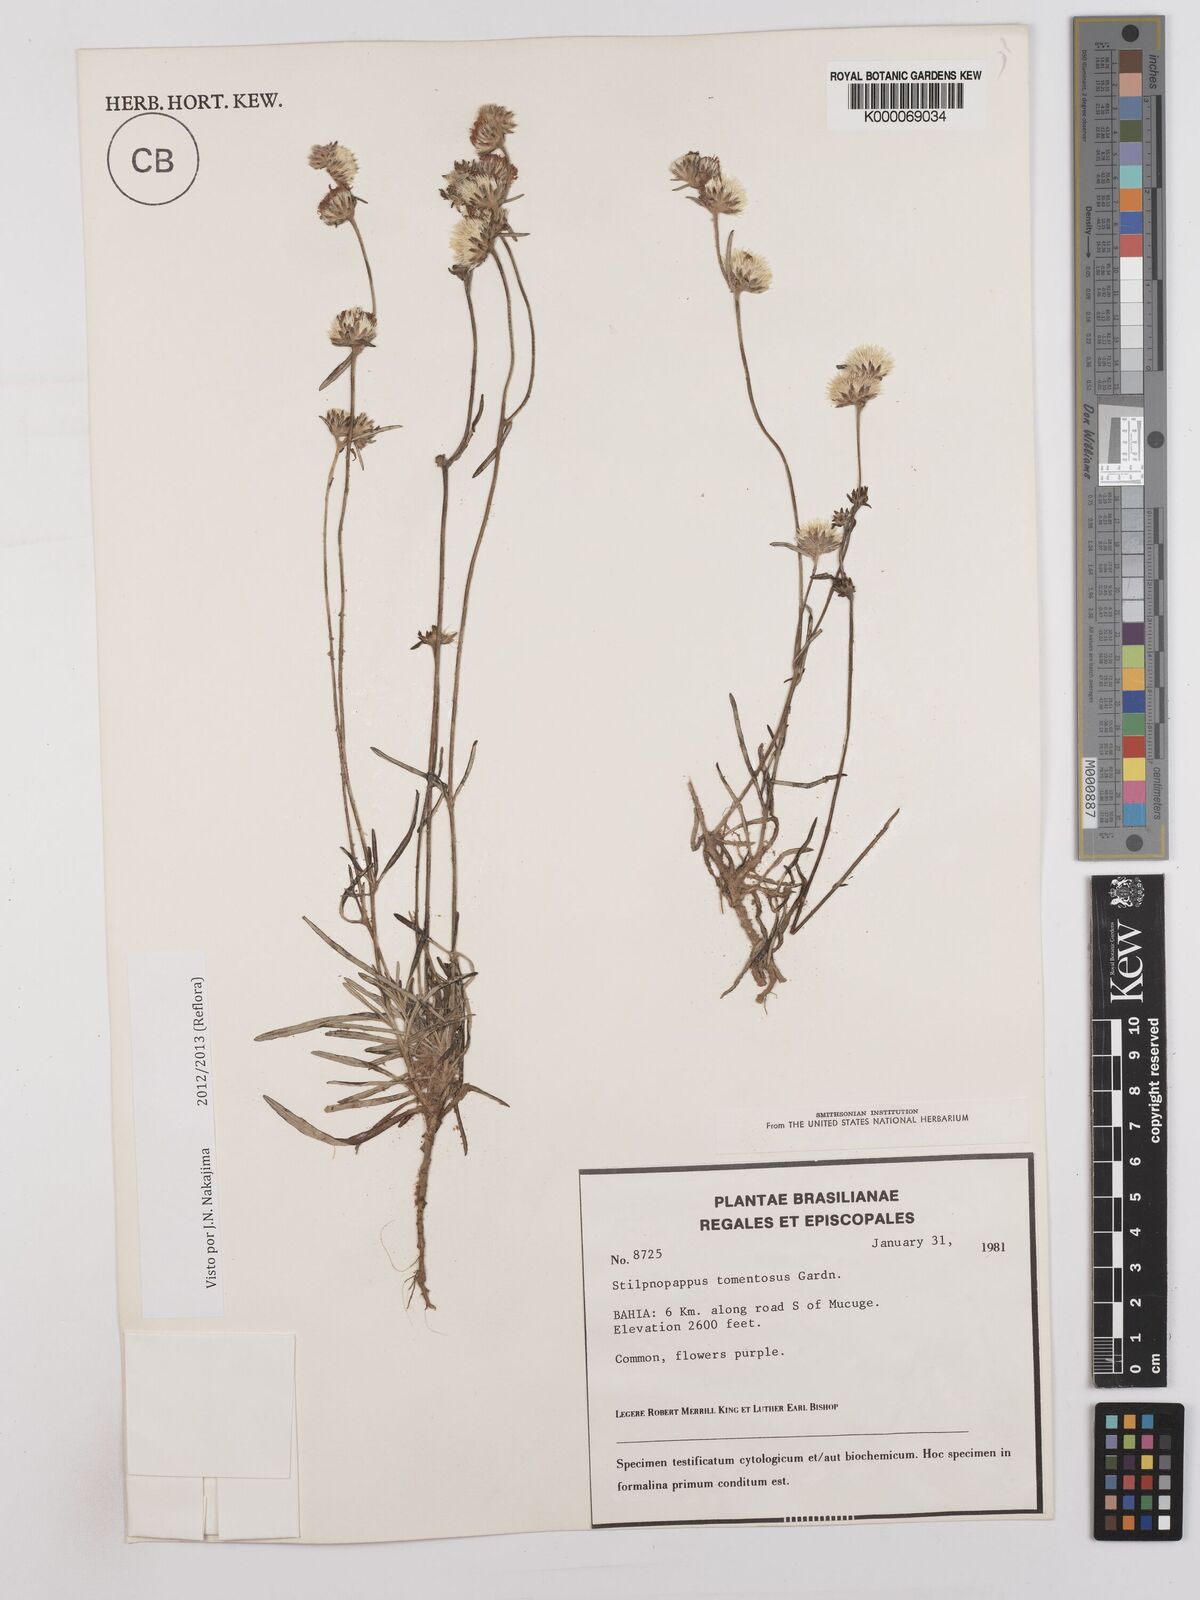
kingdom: Plantae
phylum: Tracheophyta
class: Magnoliopsida
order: Asterales
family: Asteraceae
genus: Stilpnopappus
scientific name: Stilpnopappus tomentosus
